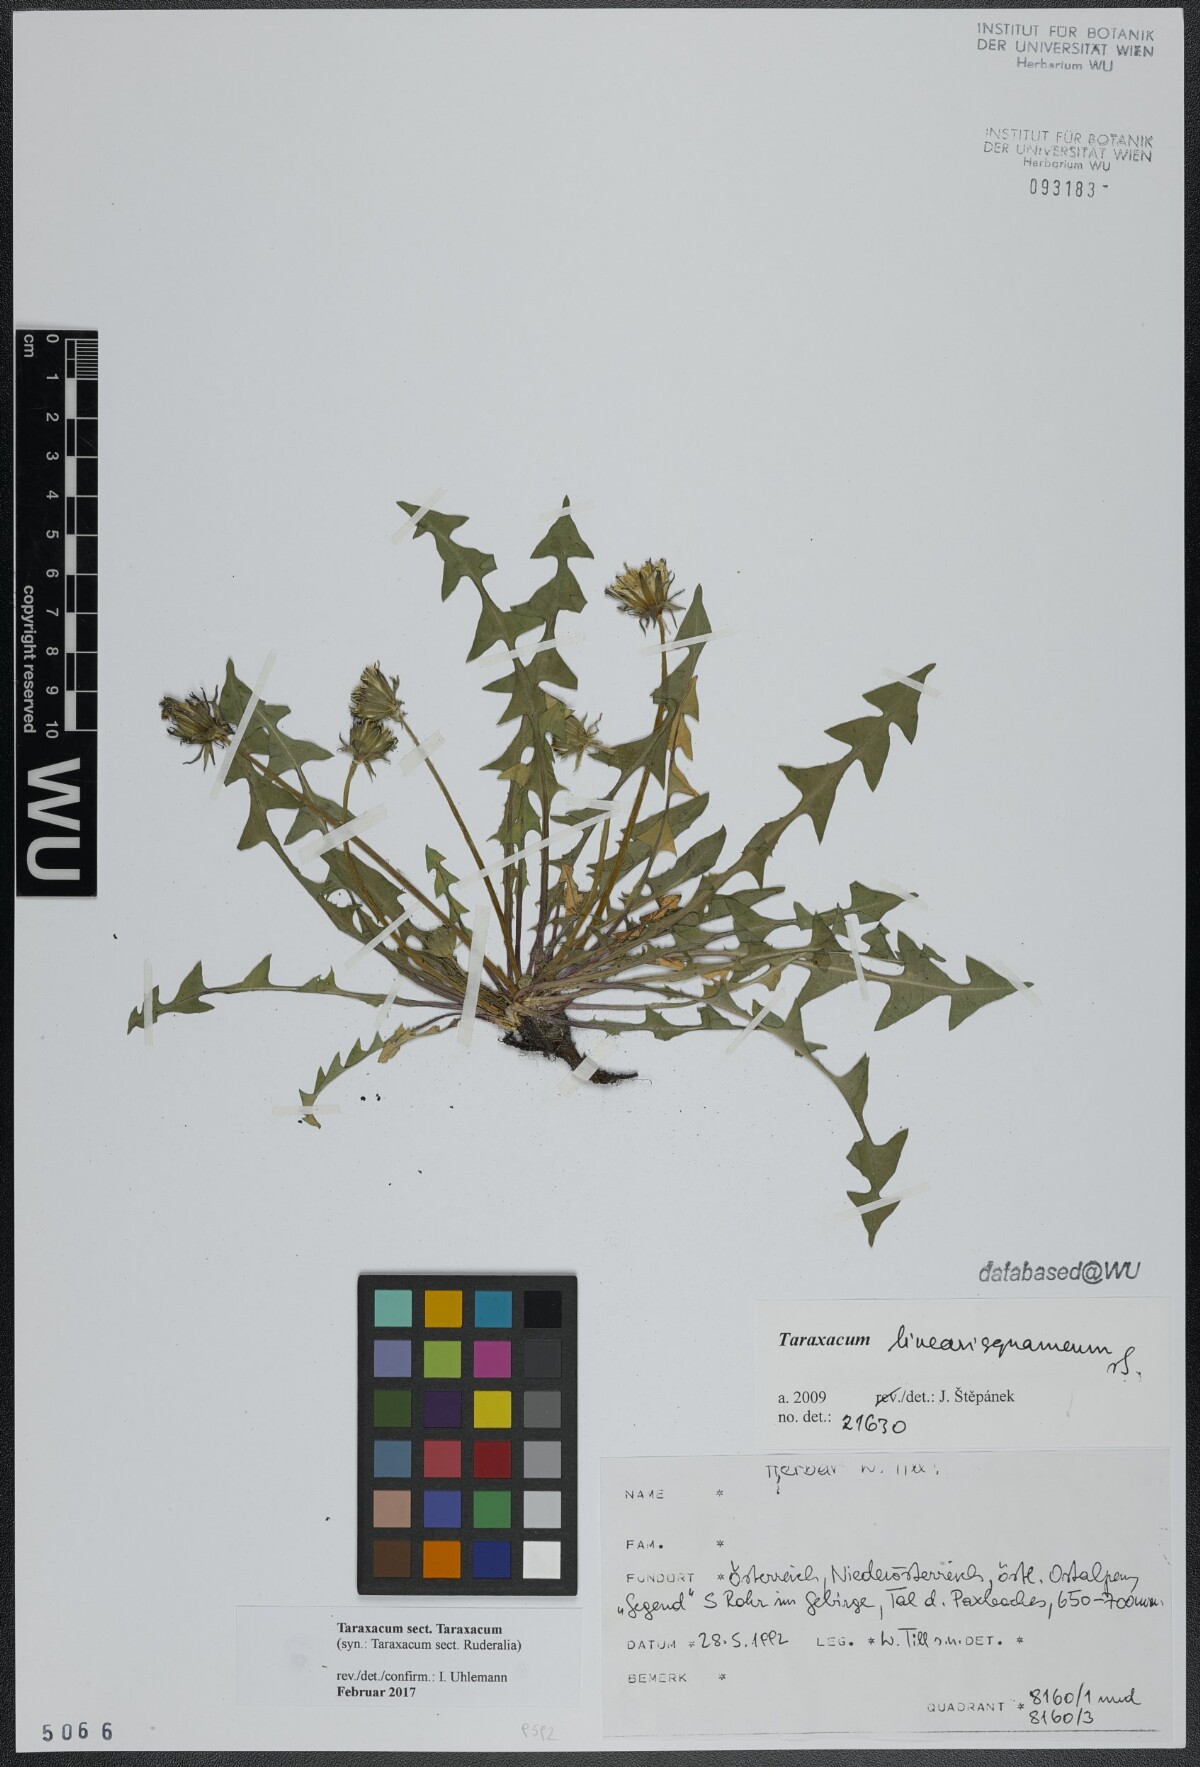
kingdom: Plantae
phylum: Tracheophyta
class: Magnoliopsida
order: Asterales
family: Asteraceae
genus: Taraxacum
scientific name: Taraxacum
